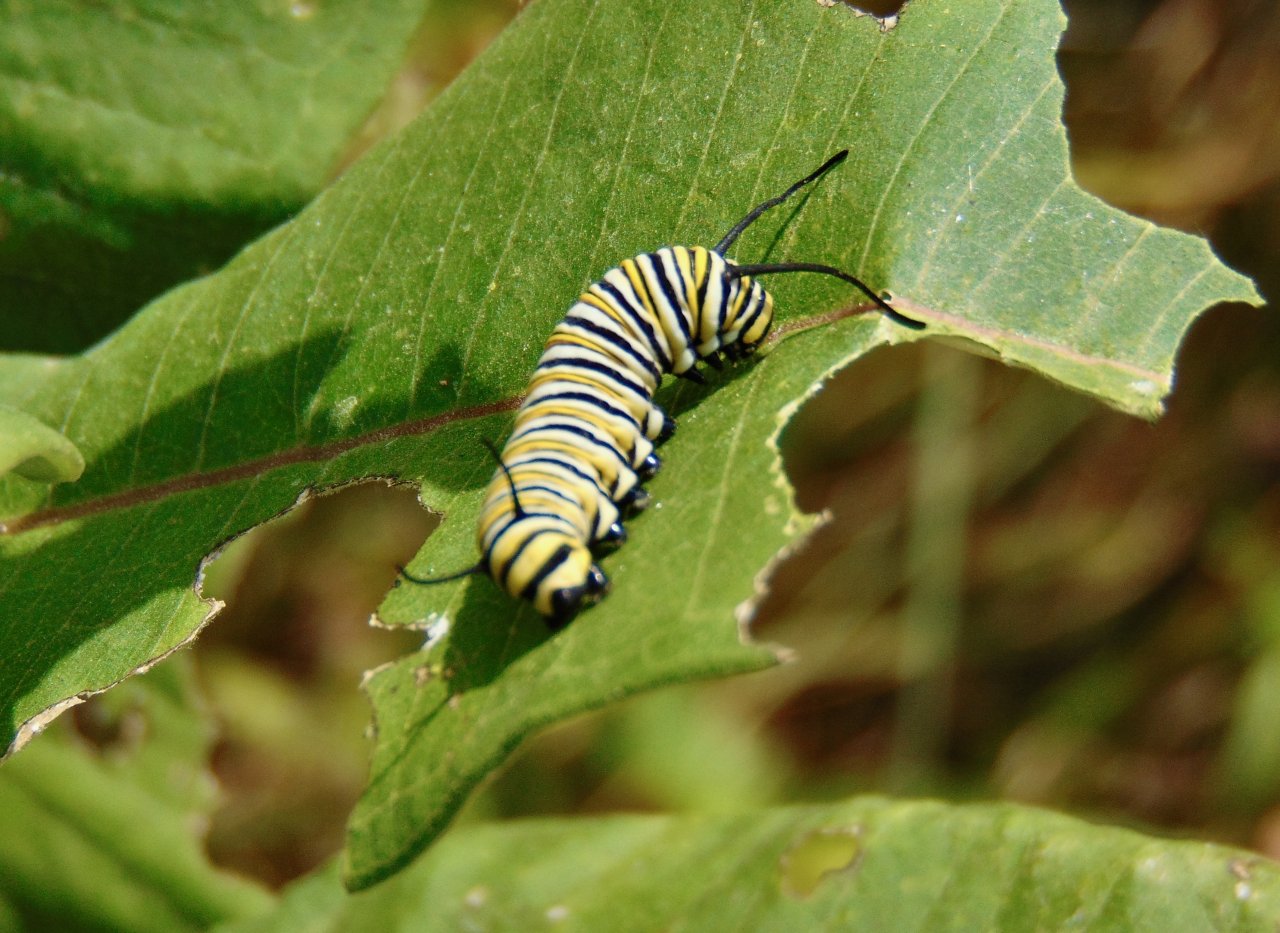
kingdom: Animalia
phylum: Arthropoda
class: Insecta
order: Lepidoptera
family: Nymphalidae
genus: Danaus
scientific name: Danaus plexippus
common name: Monarch
